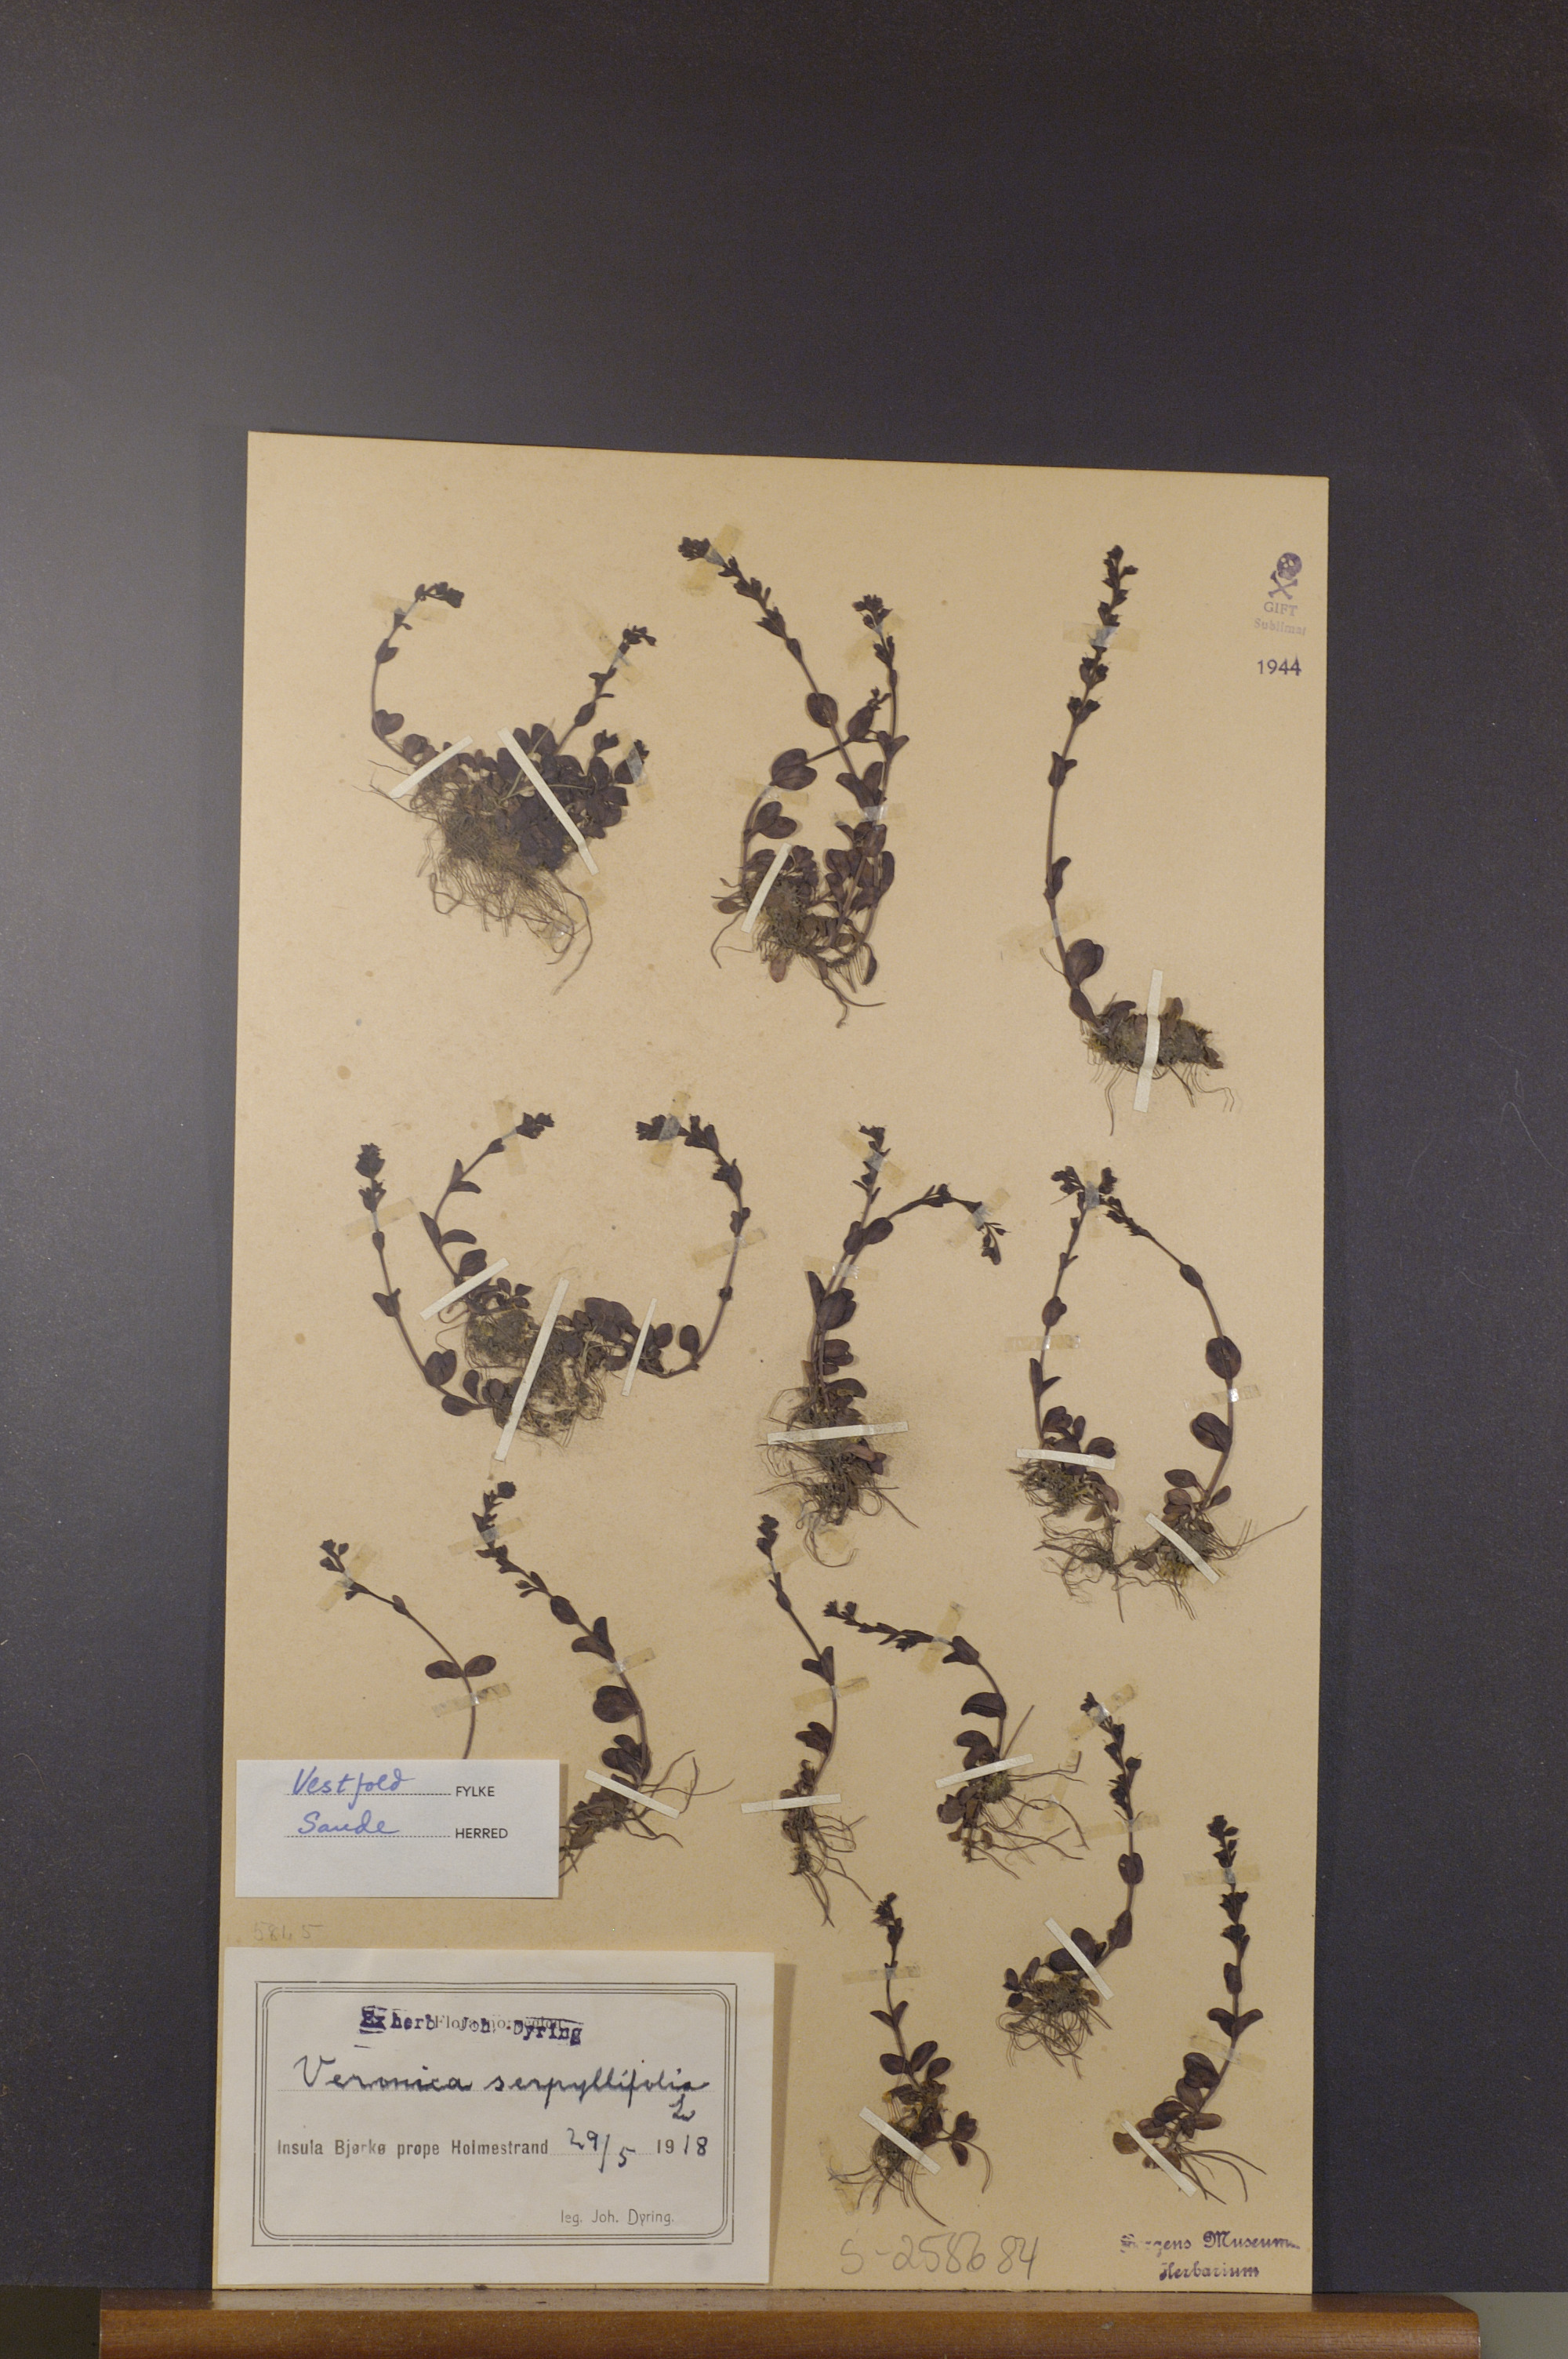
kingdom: Plantae
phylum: Tracheophyta
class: Magnoliopsida
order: Lamiales
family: Plantaginaceae
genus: Veronica
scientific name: Veronica serpyllifolia
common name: Thyme-leaved speedwell
